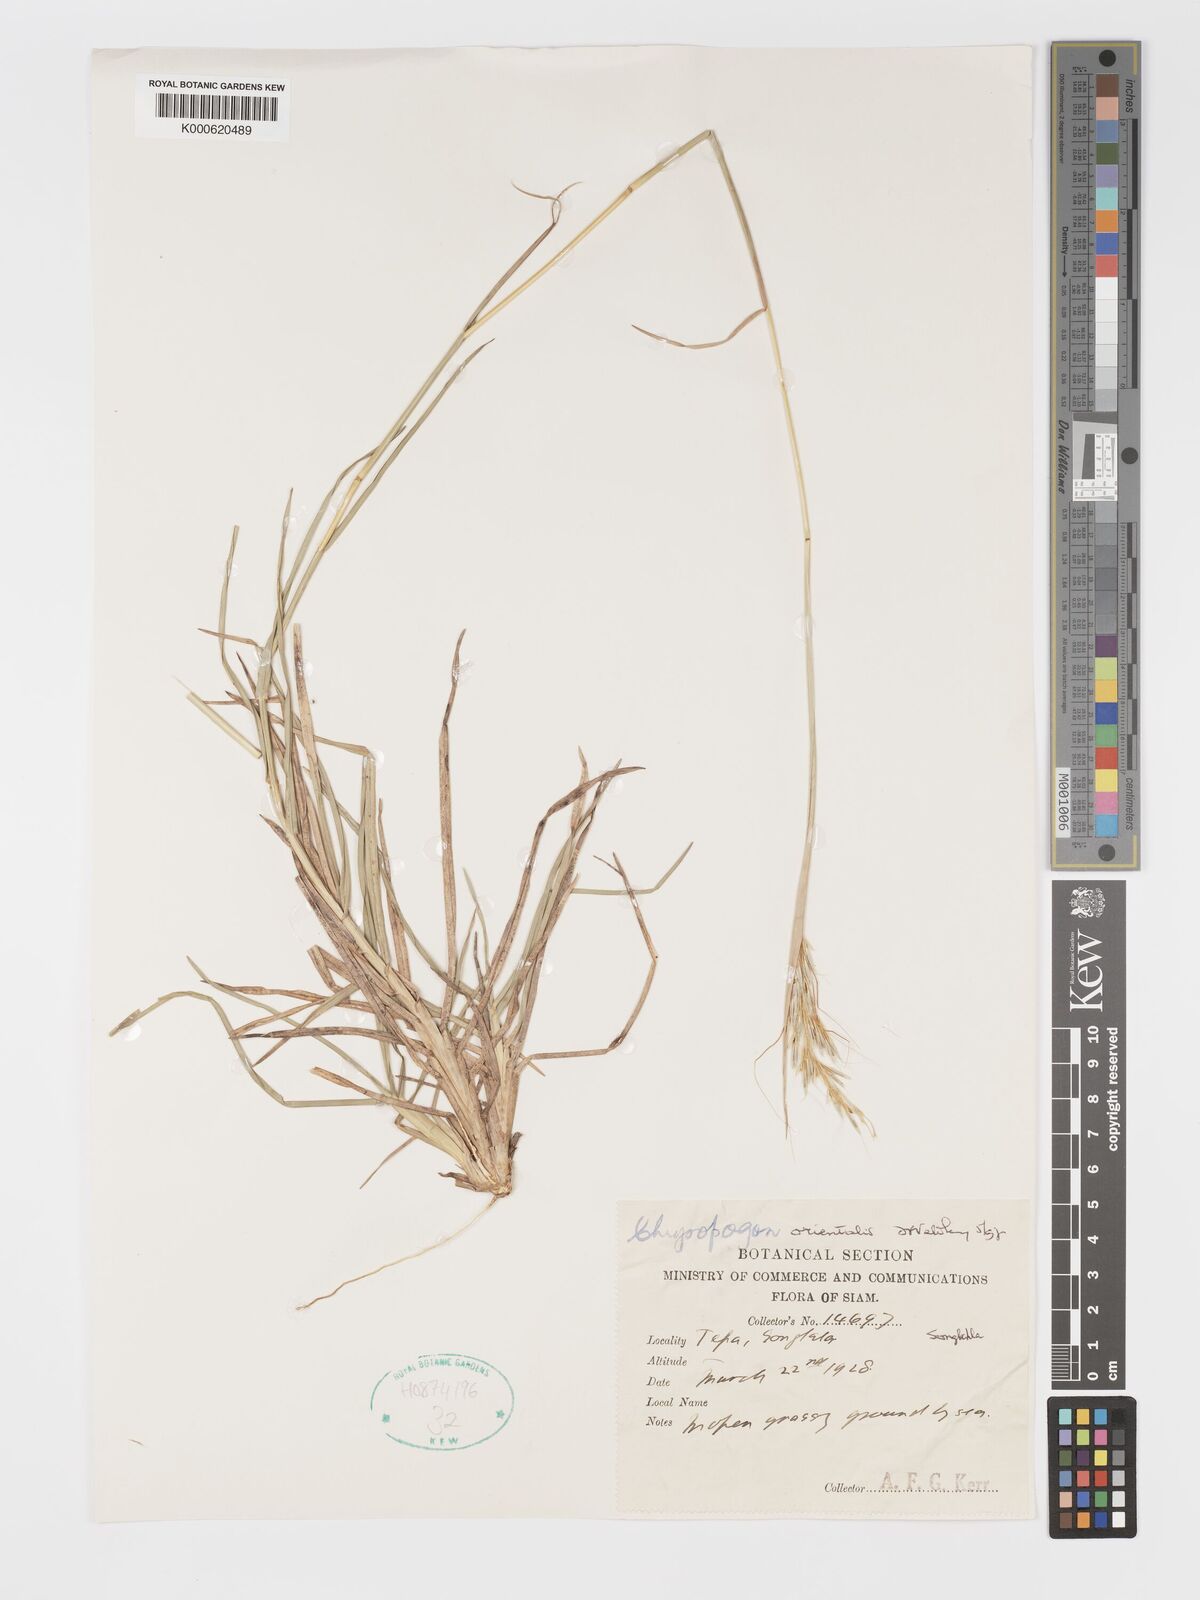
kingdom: Plantae
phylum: Tracheophyta
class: Liliopsida
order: Poales
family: Poaceae
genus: Chrysopogon
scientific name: Chrysopogon orientalis
